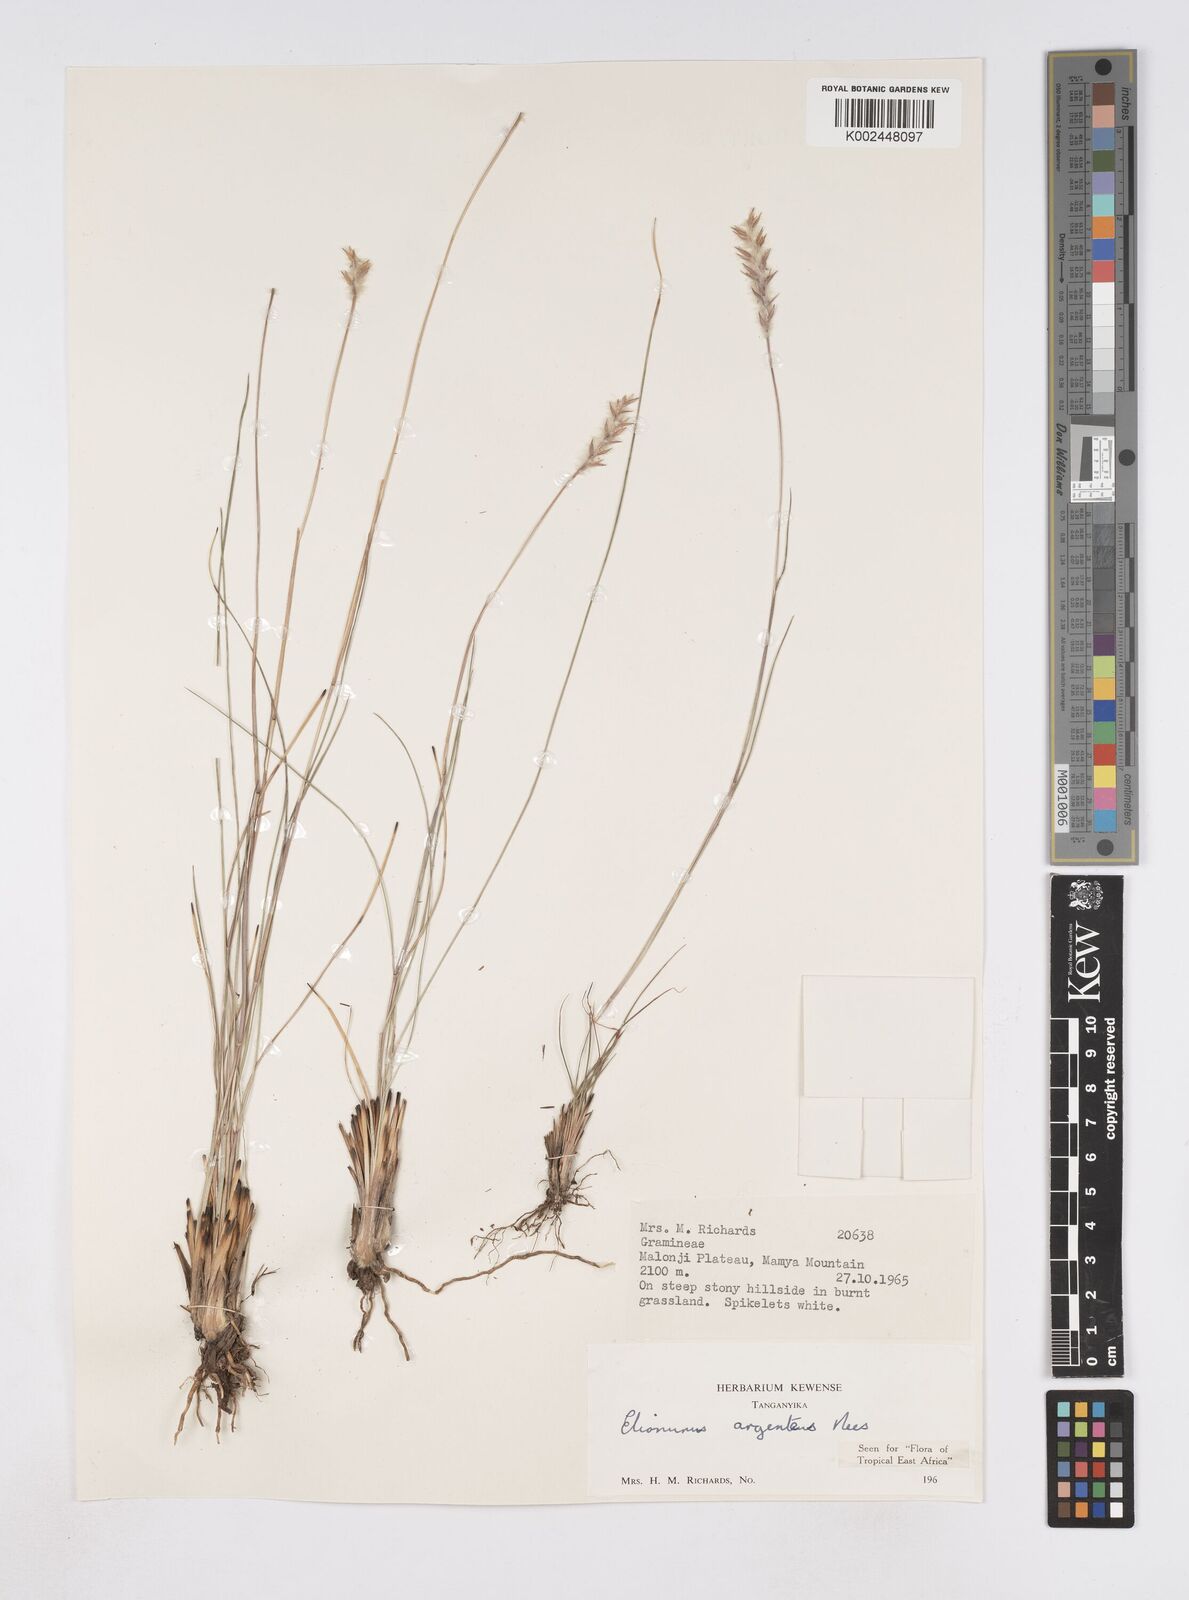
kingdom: Plantae
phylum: Tracheophyta
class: Liliopsida
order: Poales
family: Poaceae
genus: Elionurus
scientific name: Elionurus
